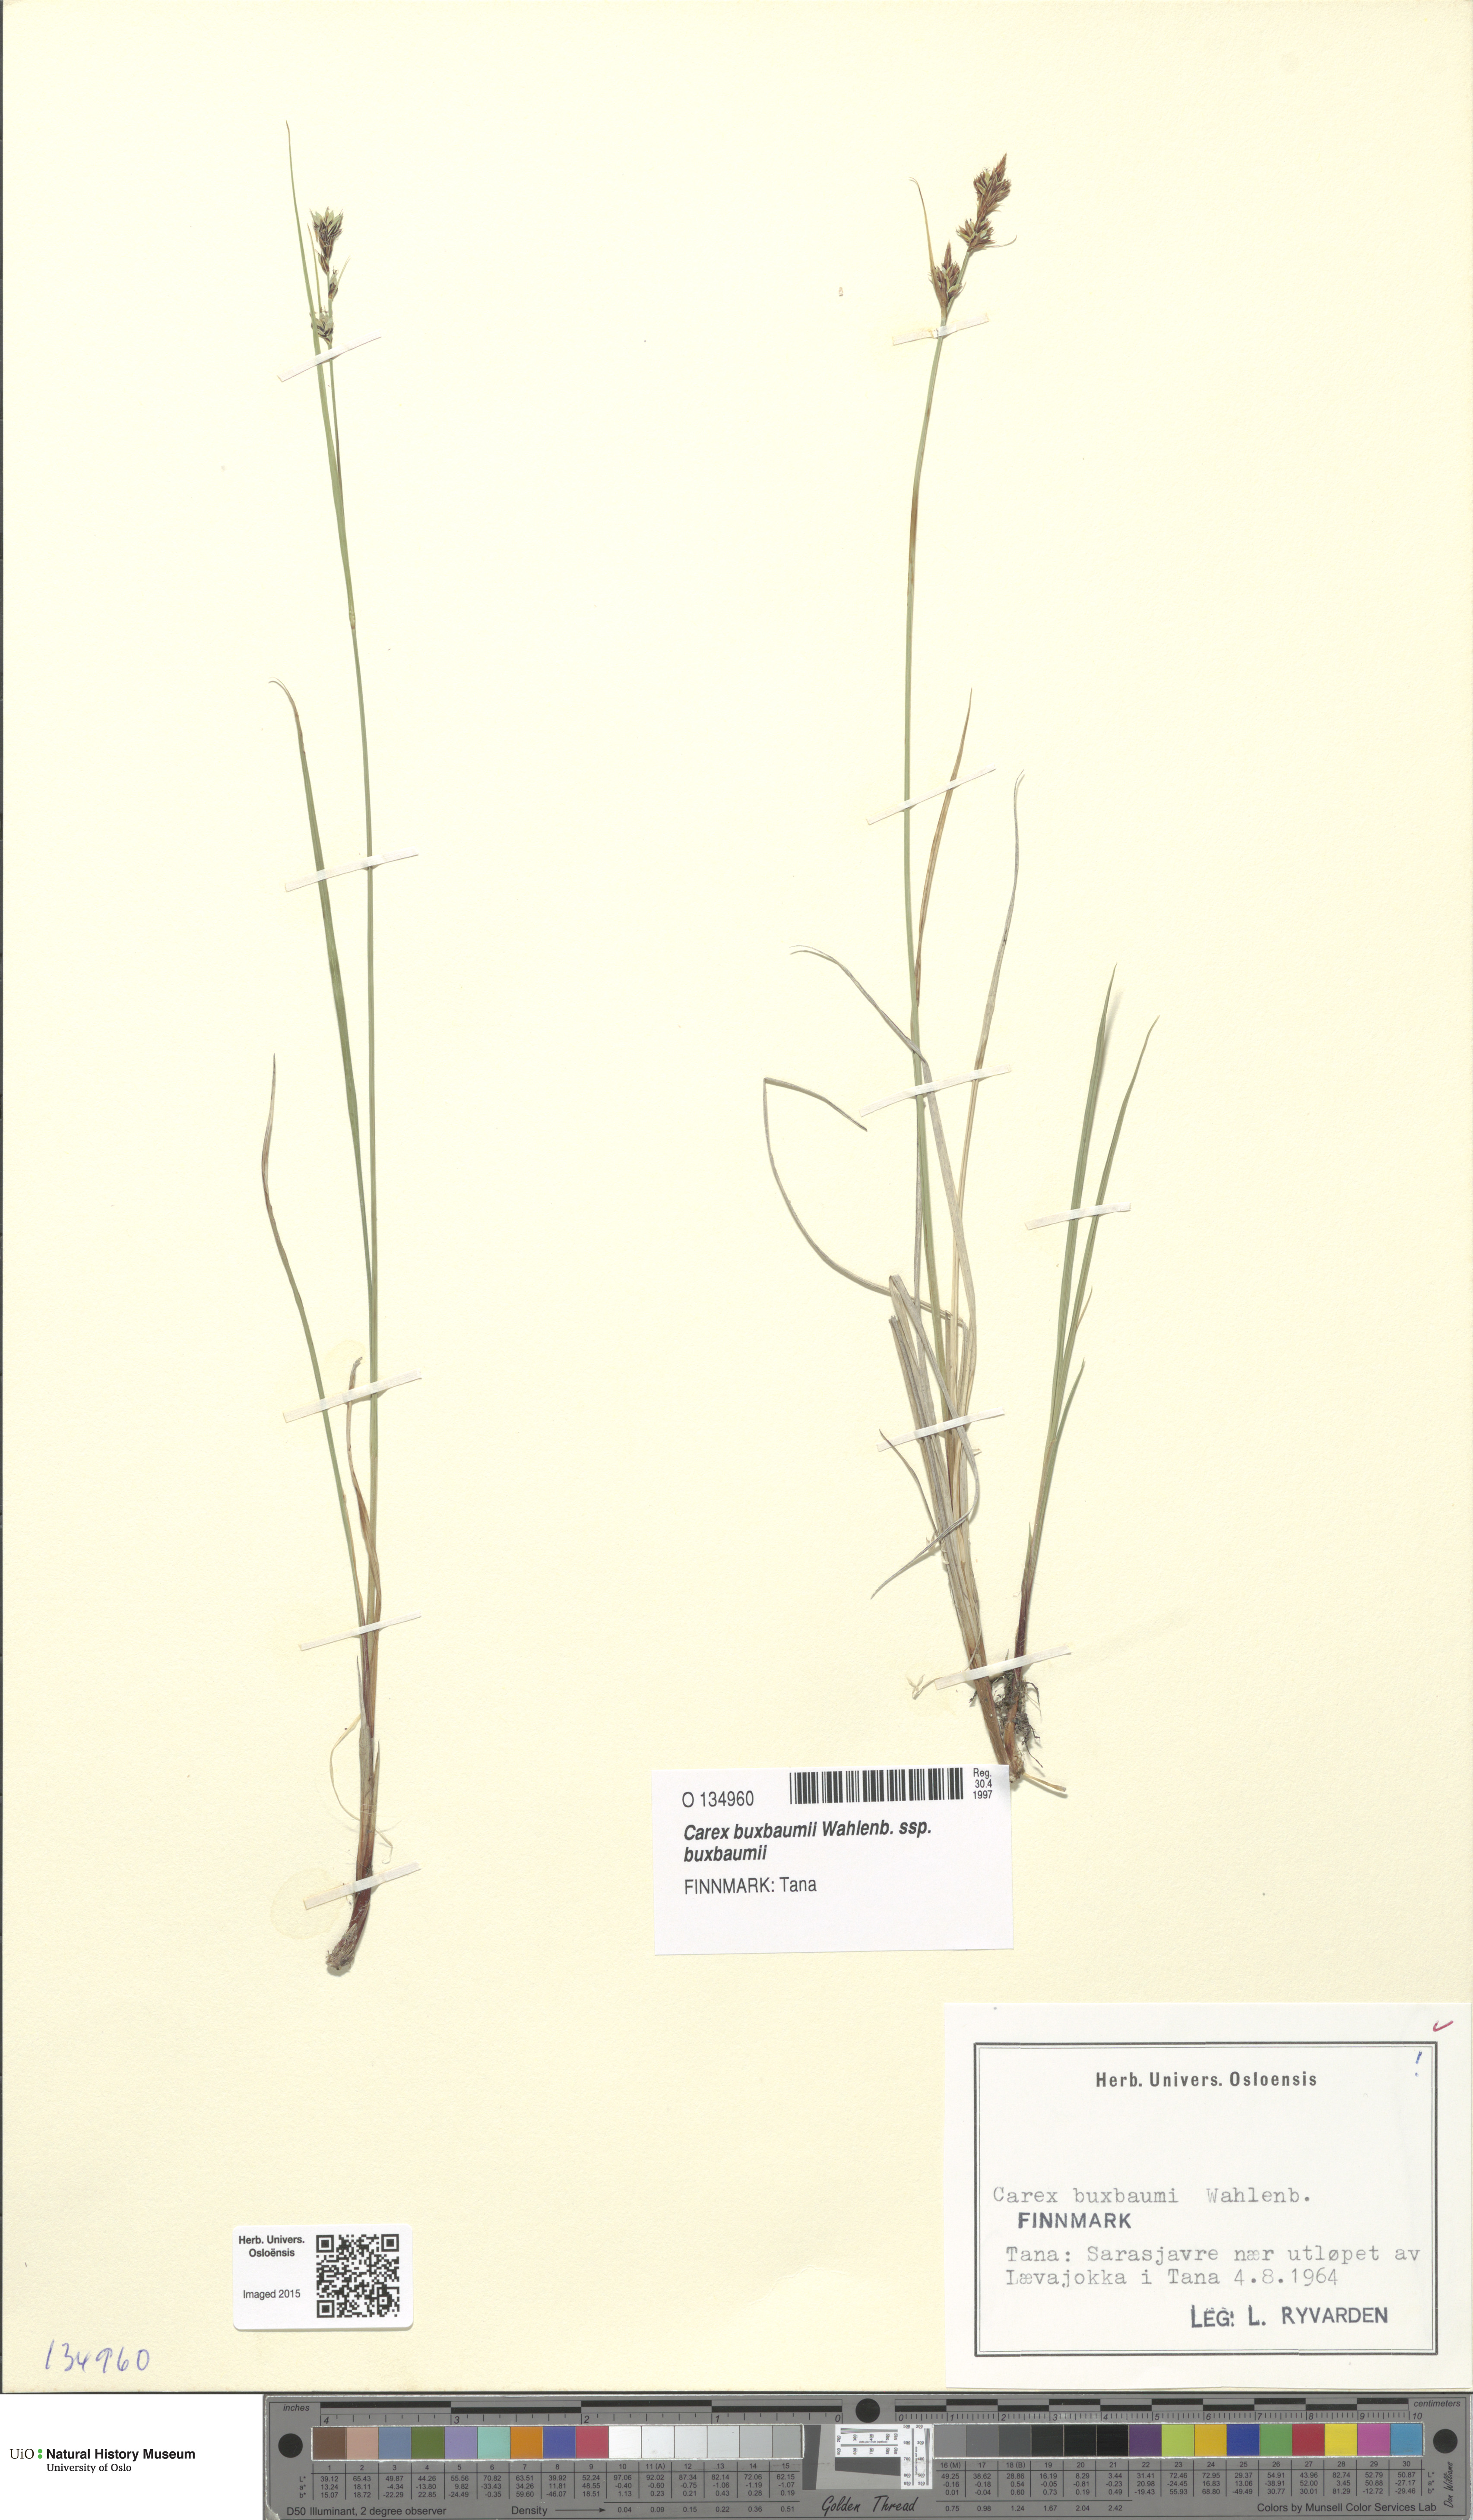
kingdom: Plantae
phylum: Tracheophyta
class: Liliopsida
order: Poales
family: Cyperaceae
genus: Carex
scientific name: Carex buxbaumii
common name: Club sedge
